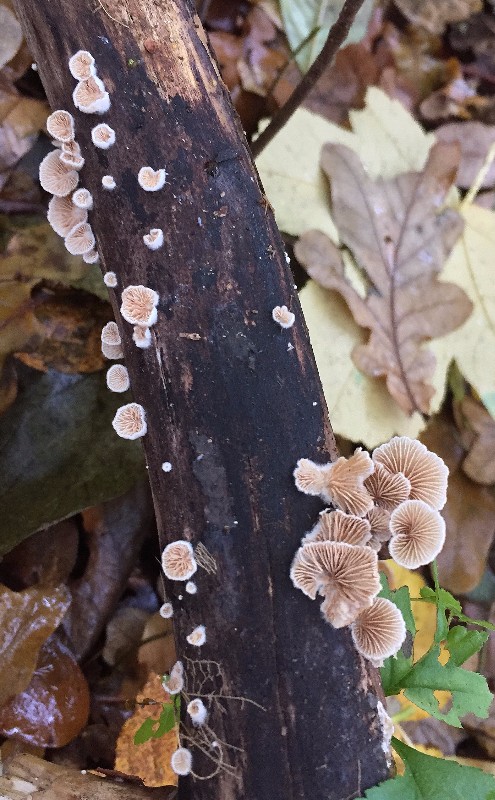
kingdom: Fungi
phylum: Basidiomycota
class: Agaricomycetes
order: Agaricales
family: Crepidotaceae
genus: Crepidotus
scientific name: Crepidotus
